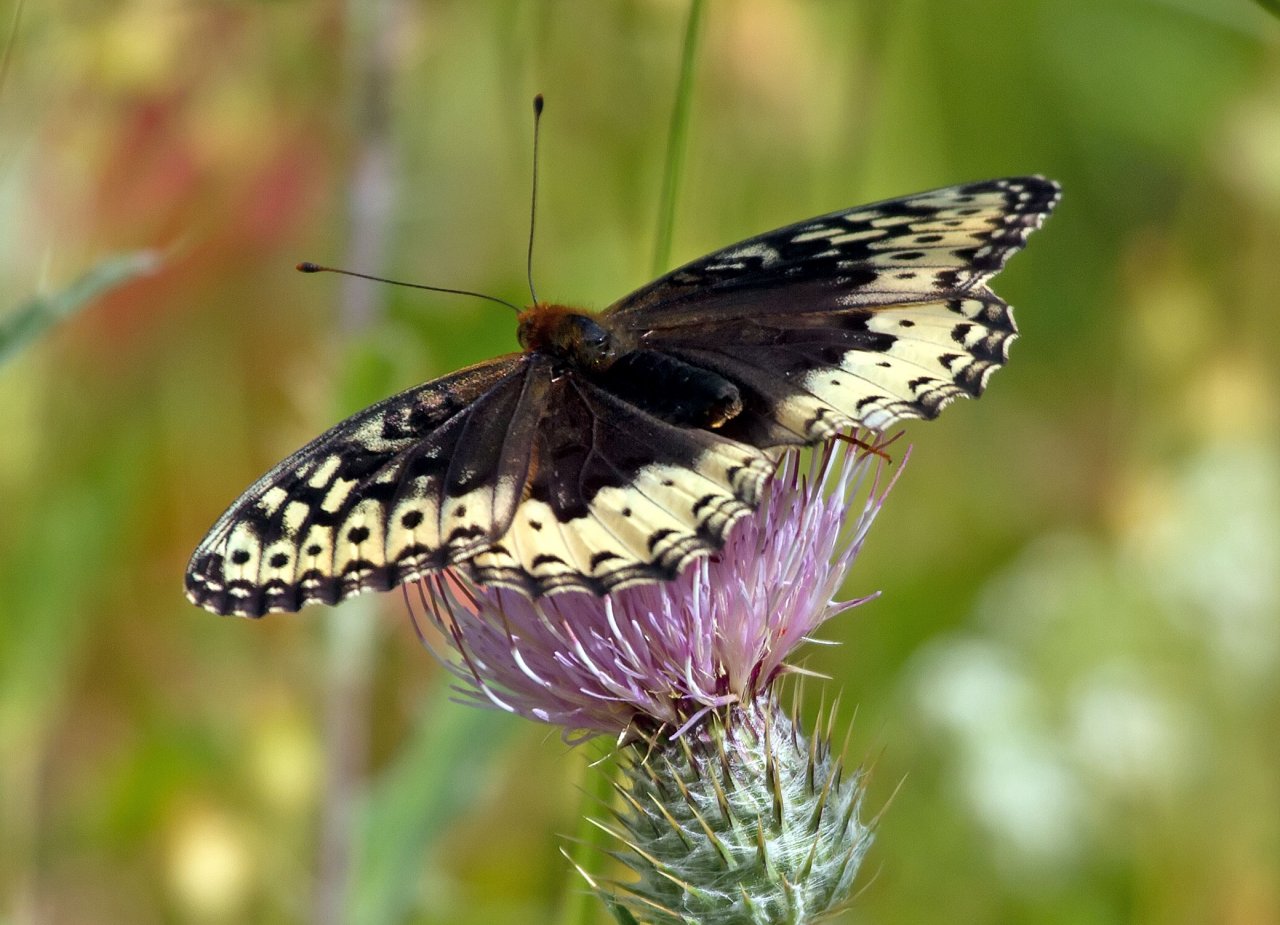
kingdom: Animalia
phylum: Arthropoda
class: Insecta
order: Lepidoptera
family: Nymphalidae
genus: Speyeria
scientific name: Speyeria cybele
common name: Great Spangled Fritillary
